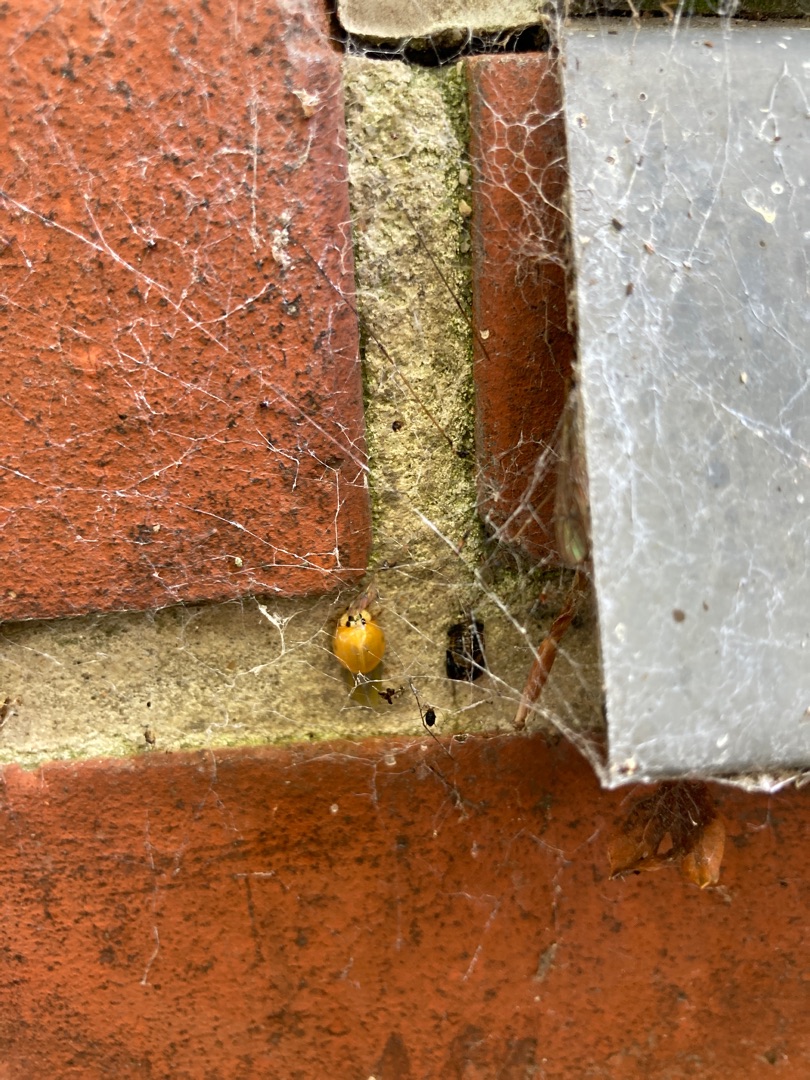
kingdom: Animalia
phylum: Arthropoda
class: Insecta
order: Coleoptera
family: Coccinellidae
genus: Harmonia
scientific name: Harmonia axyridis
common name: Harlekinmariehøne
